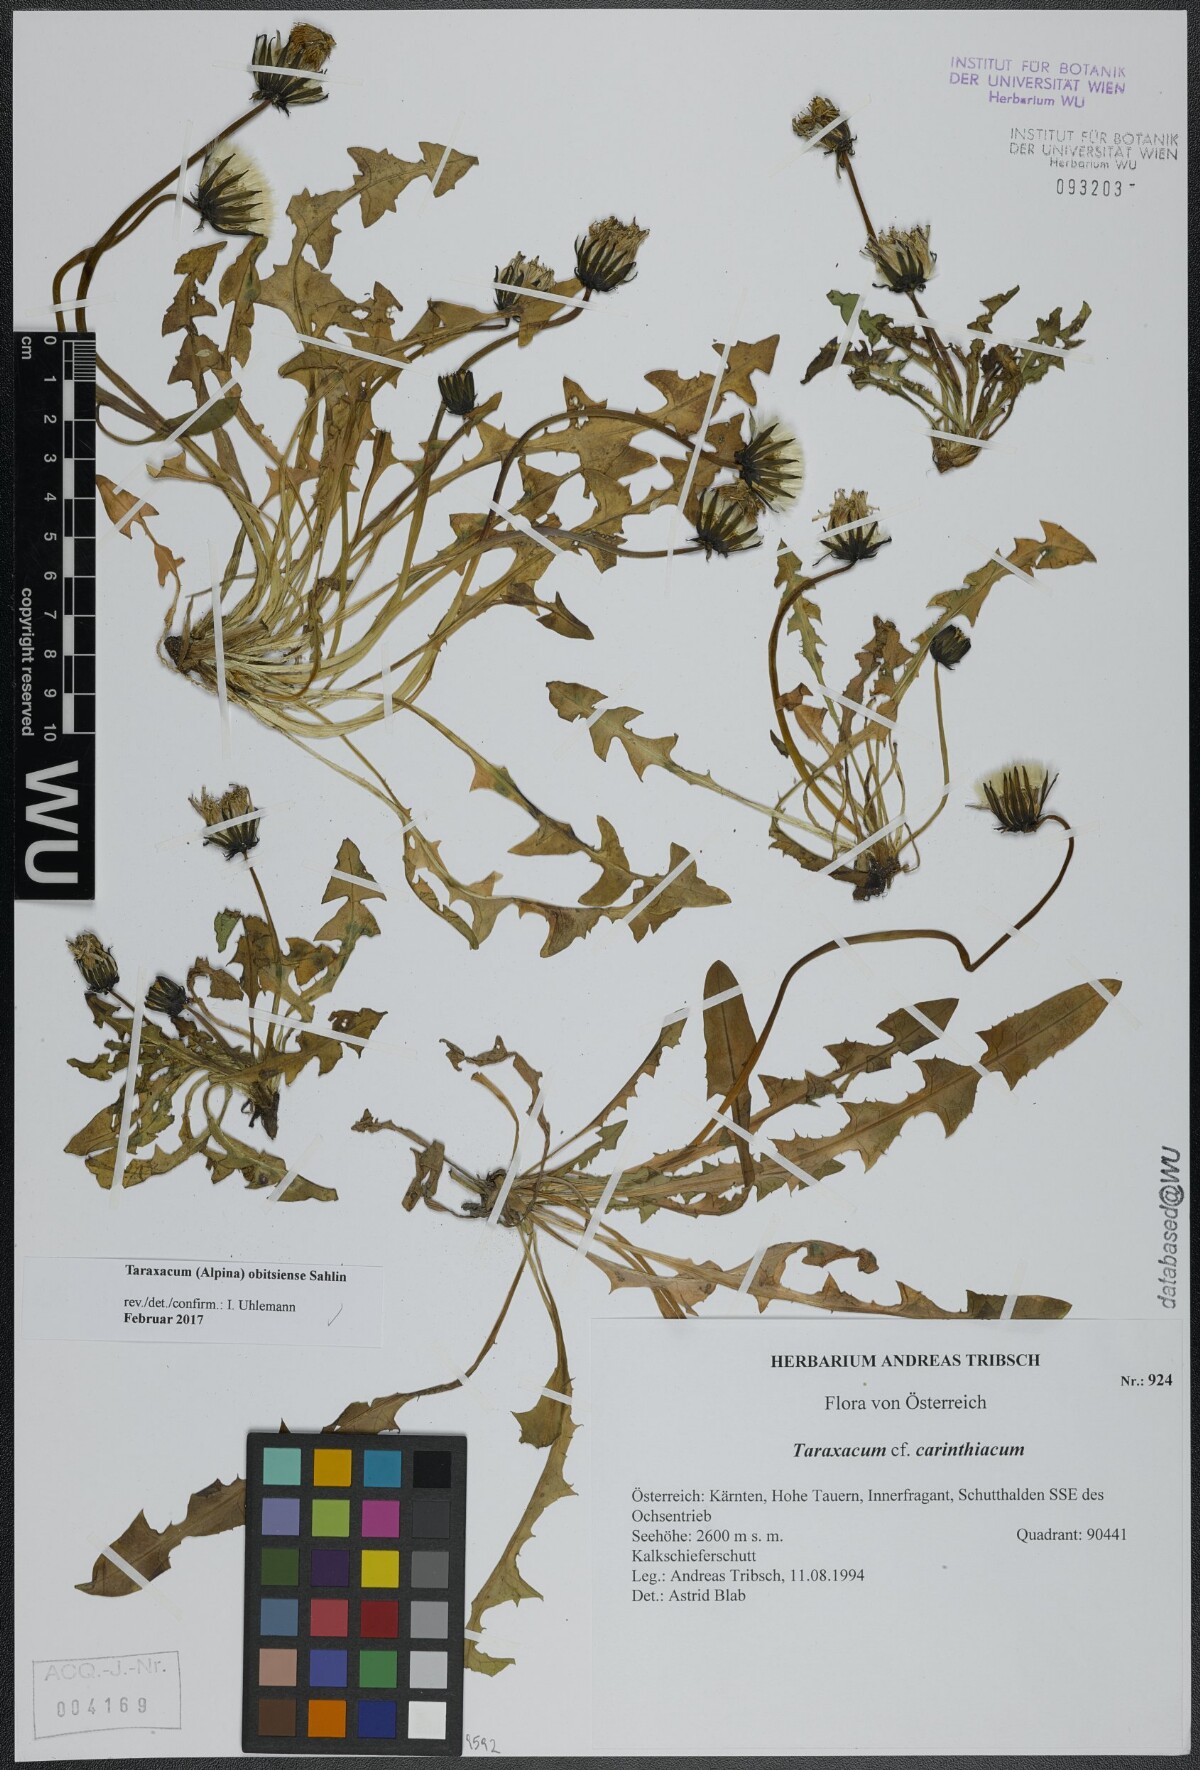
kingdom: Plantae
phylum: Tracheophyta
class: Magnoliopsida
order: Asterales
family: Asteraceae
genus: Taraxacum
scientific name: Taraxacum obitsiense
